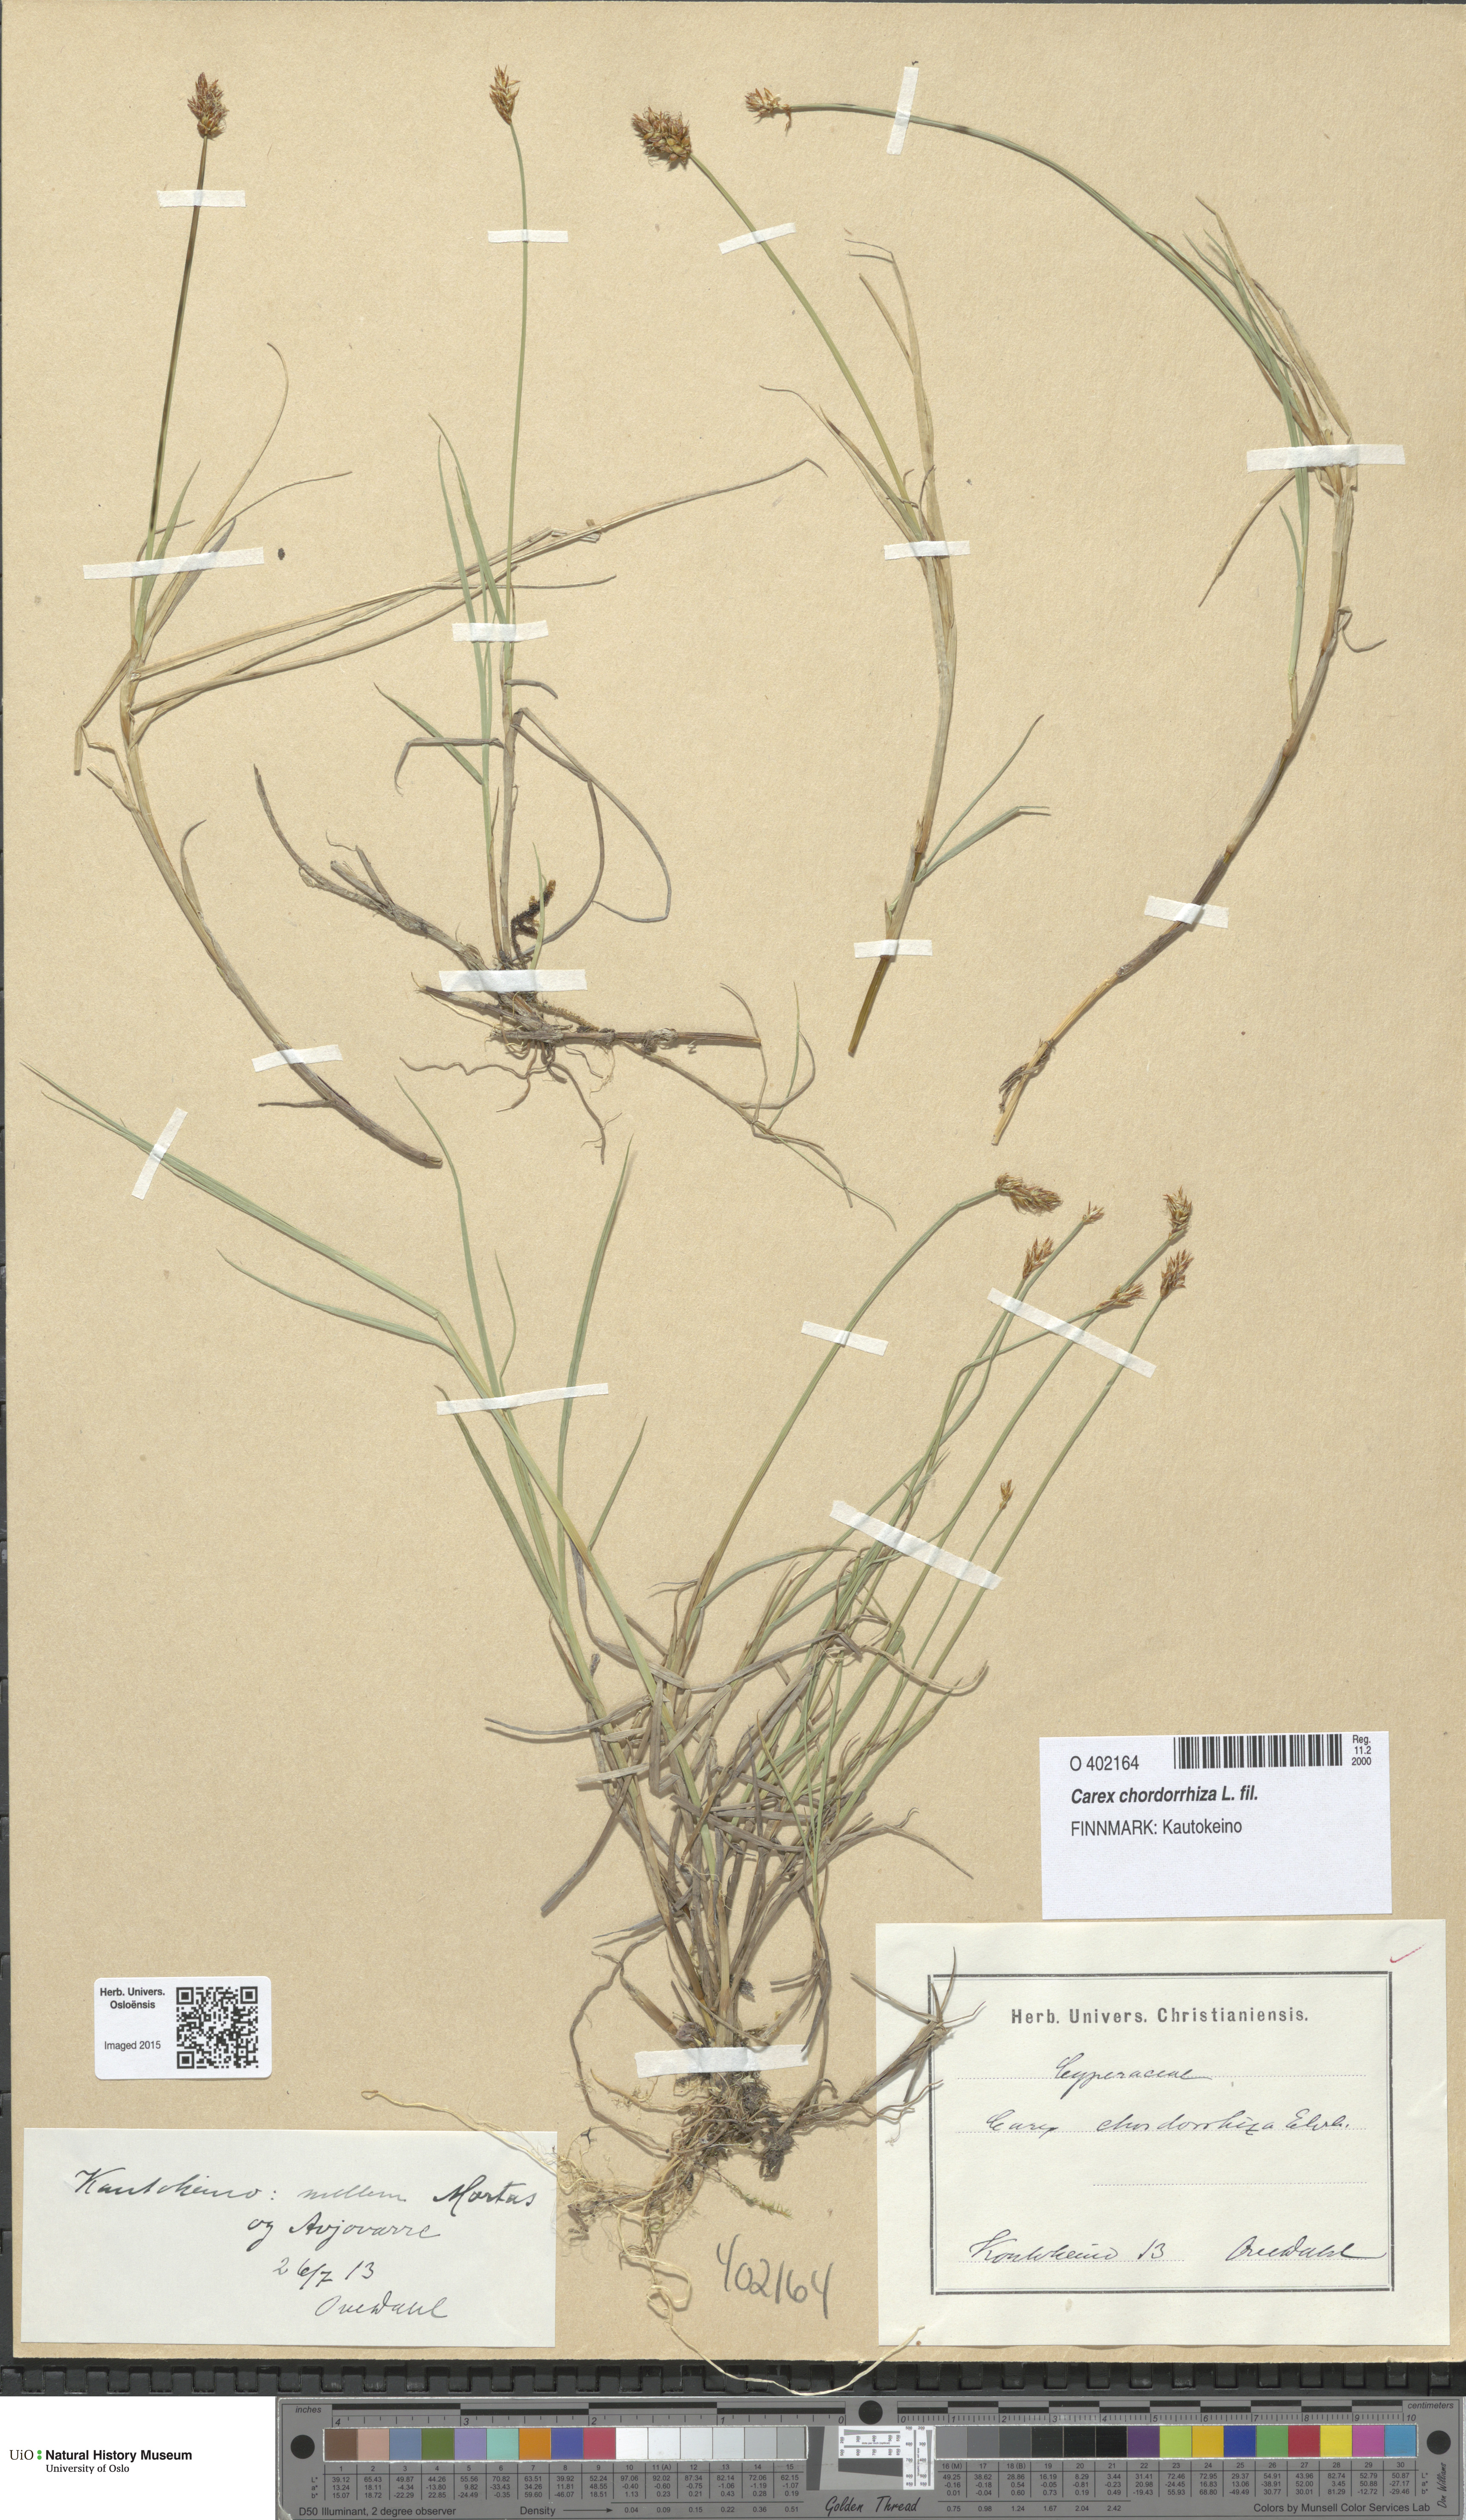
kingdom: Plantae
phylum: Tracheophyta
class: Liliopsida
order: Poales
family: Cyperaceae
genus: Carex
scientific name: Carex chordorrhiza
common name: String sedge
